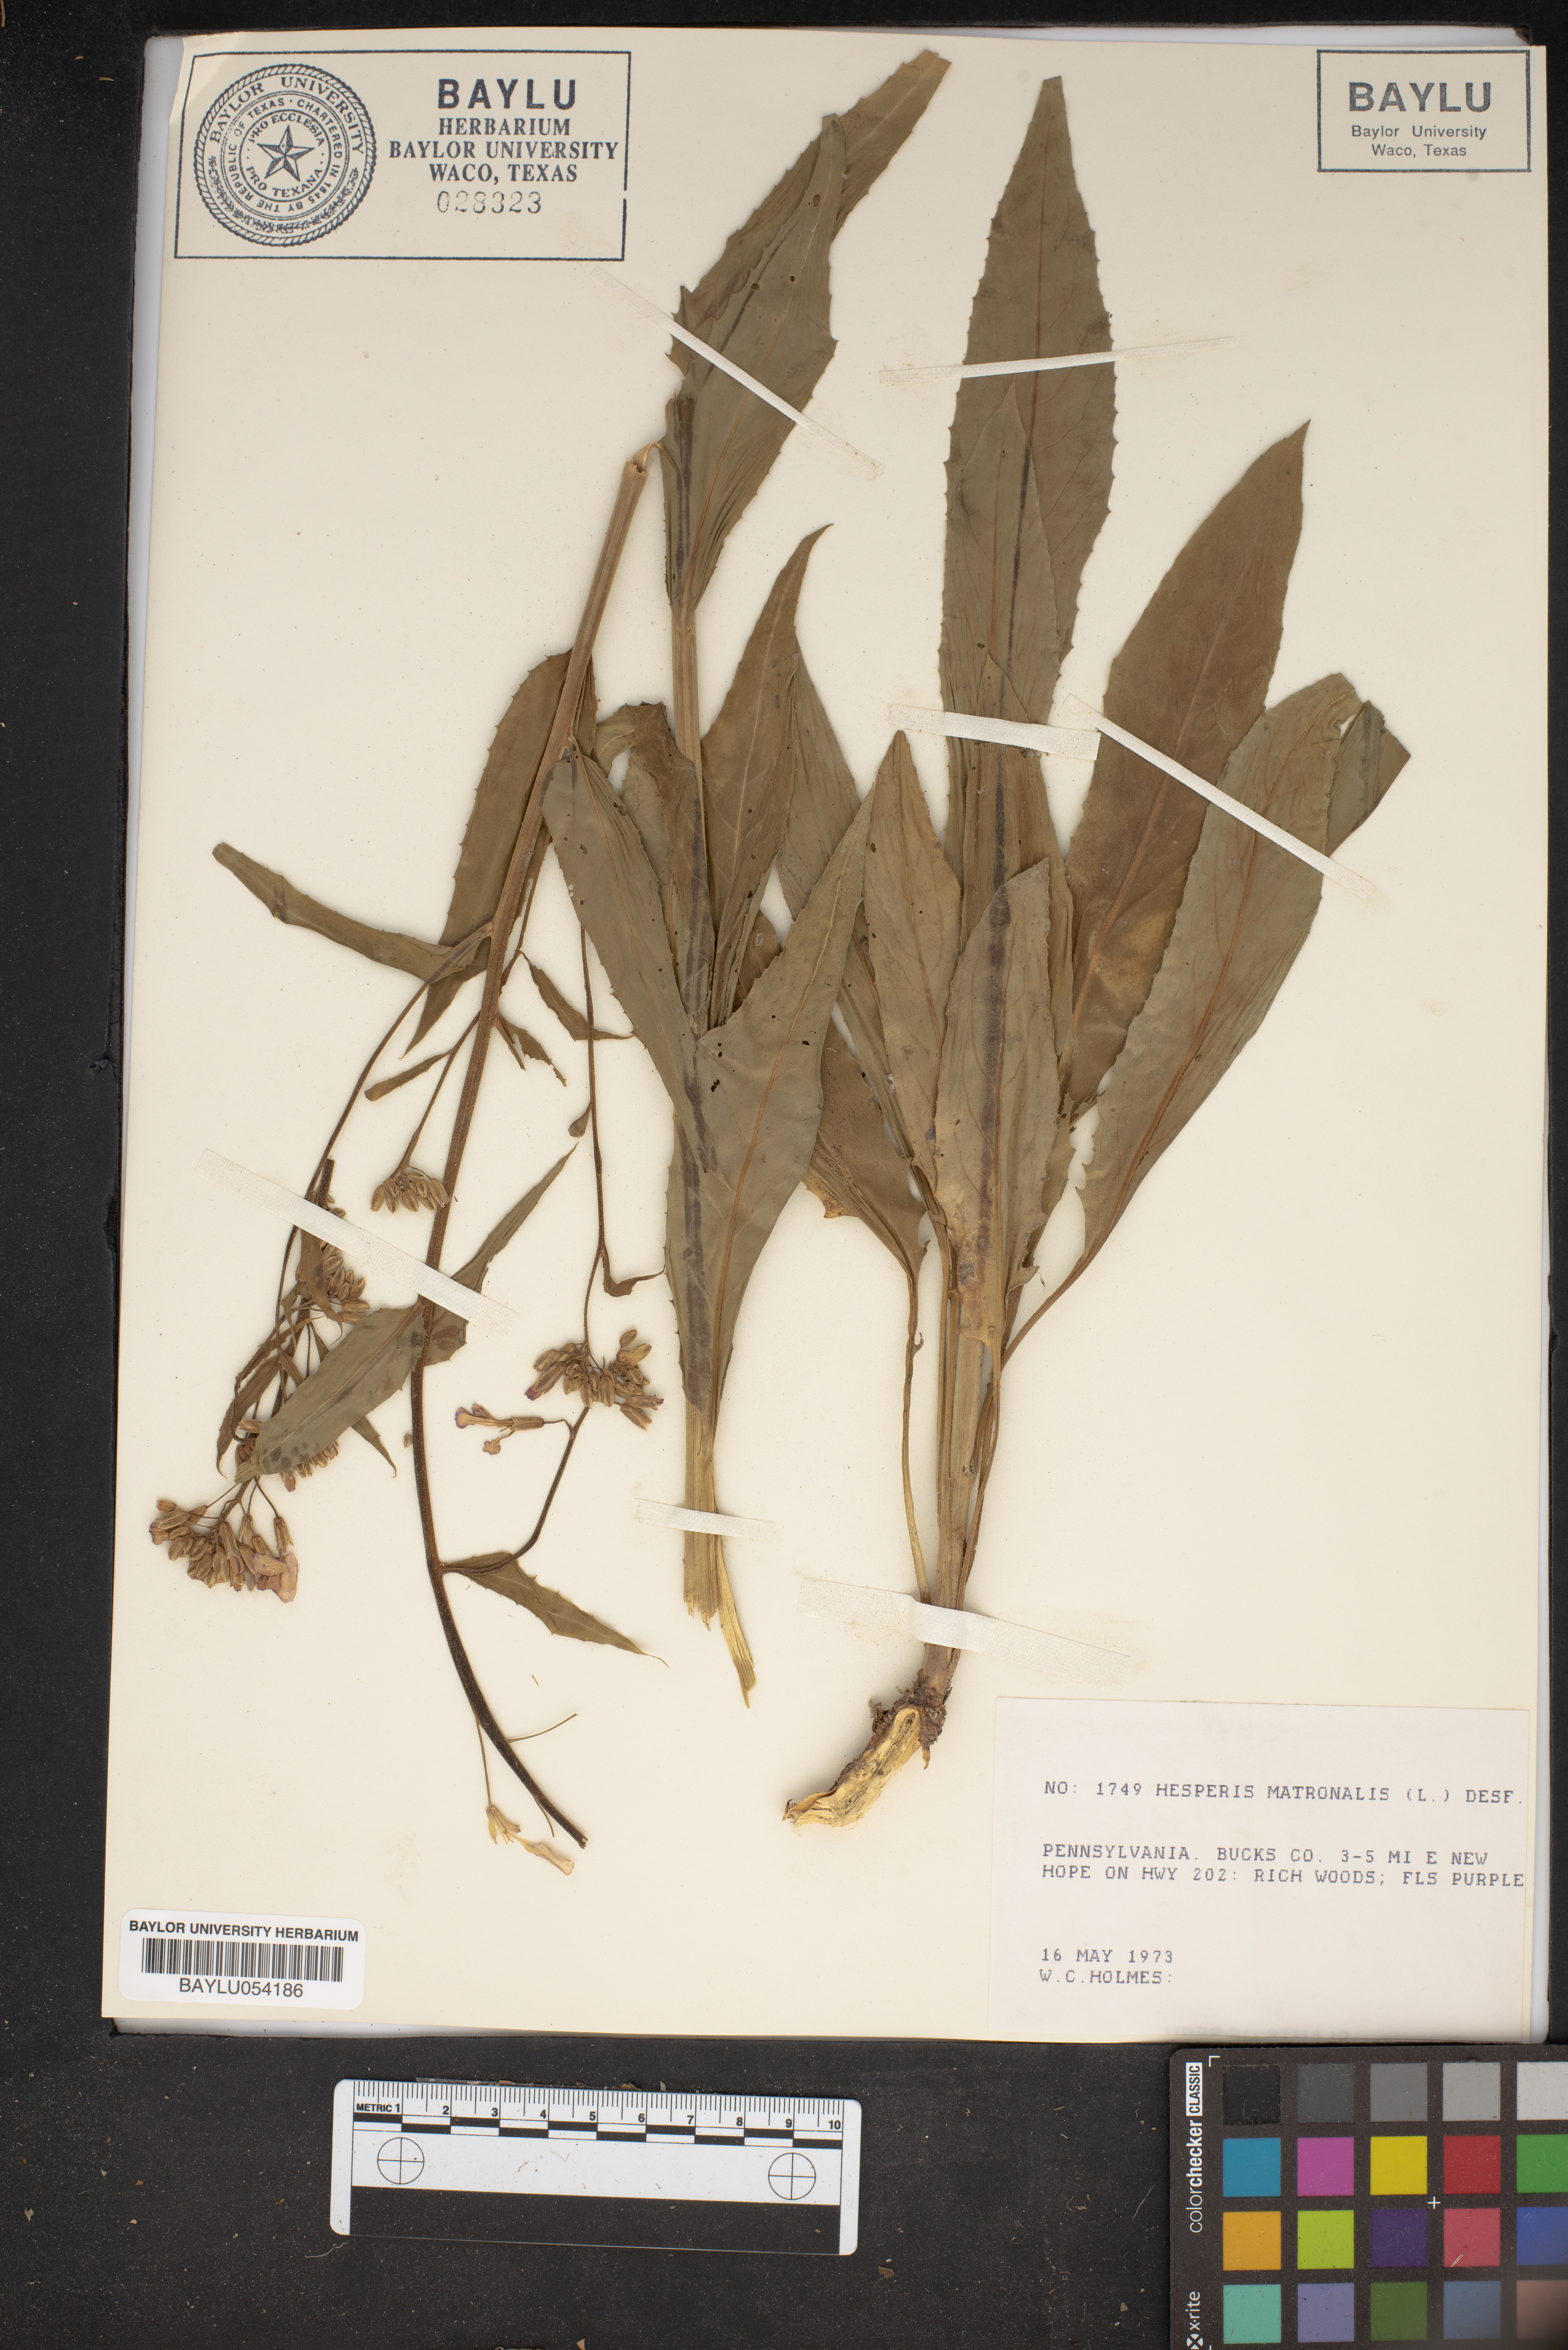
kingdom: Plantae
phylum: Tracheophyta
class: Magnoliopsida
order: Brassicales
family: Brassicaceae
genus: Hesperis
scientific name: Hesperis matronalis
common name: Dame's-violet
